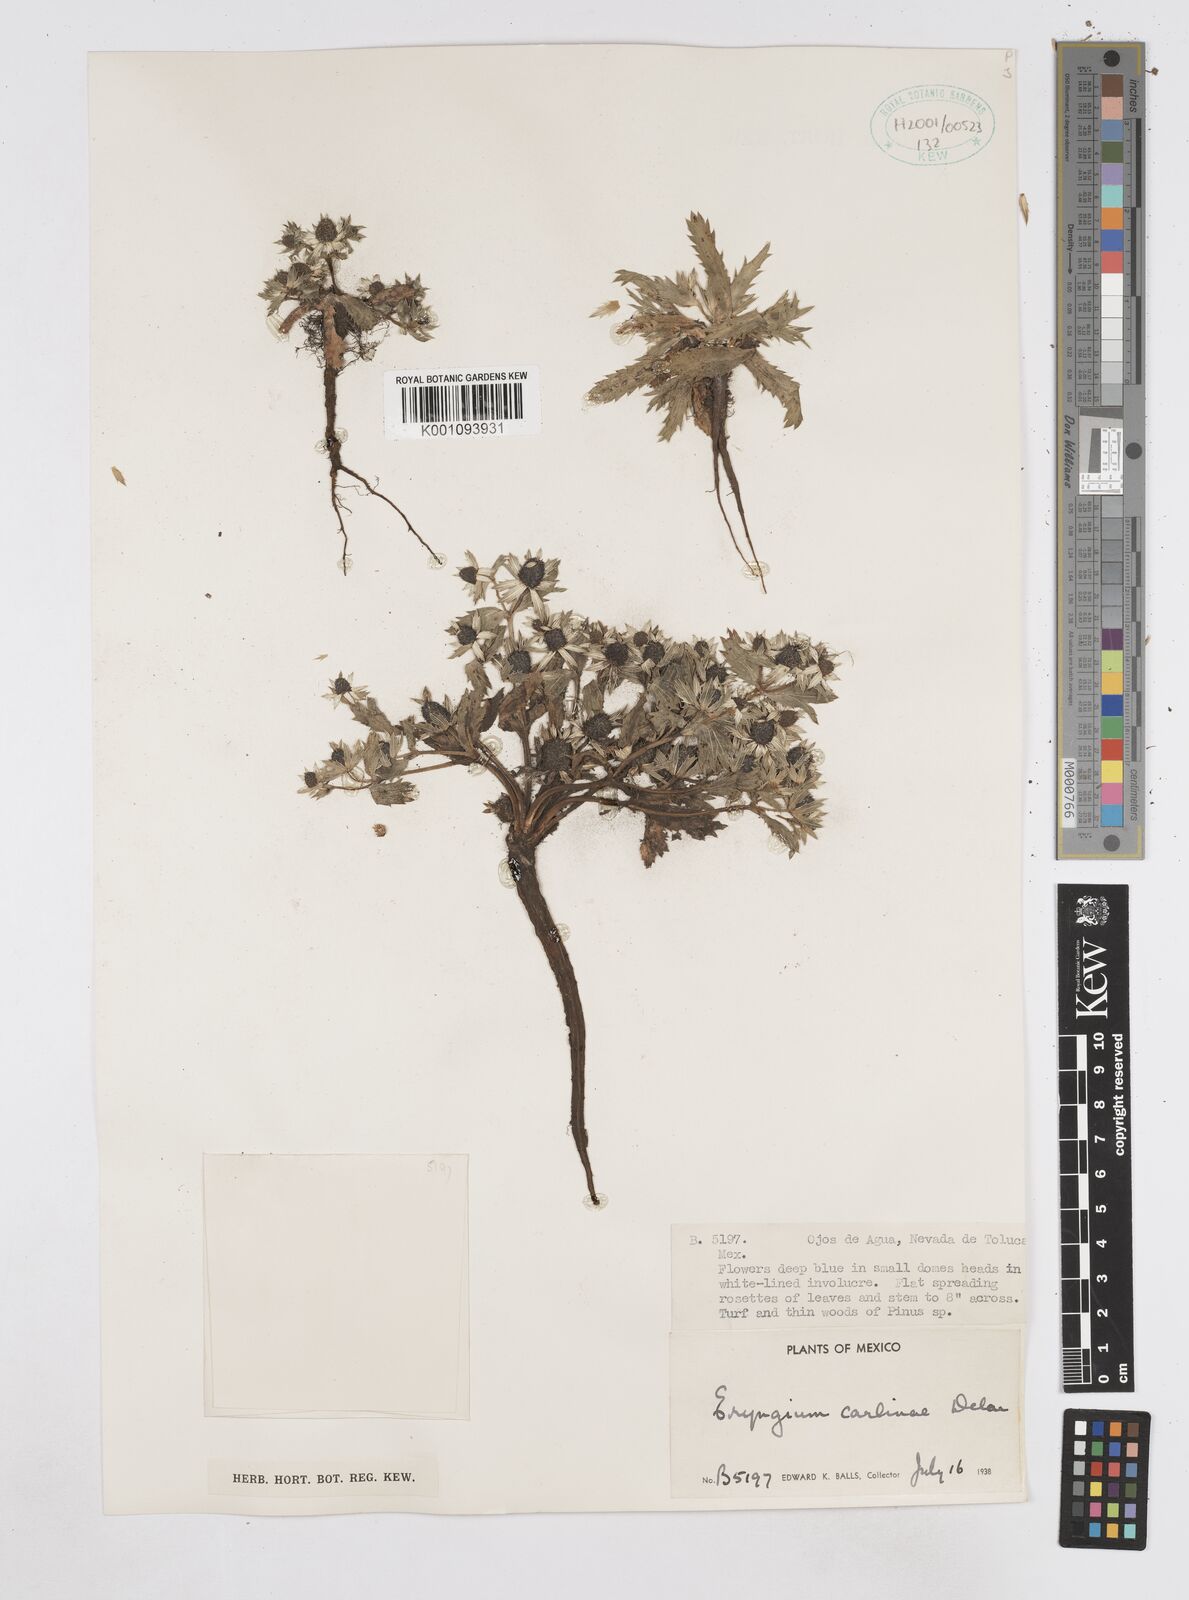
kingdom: Plantae
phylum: Tracheophyta
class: Magnoliopsida
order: Apiales
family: Apiaceae
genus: Eryngium
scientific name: Eryngium carlinae
